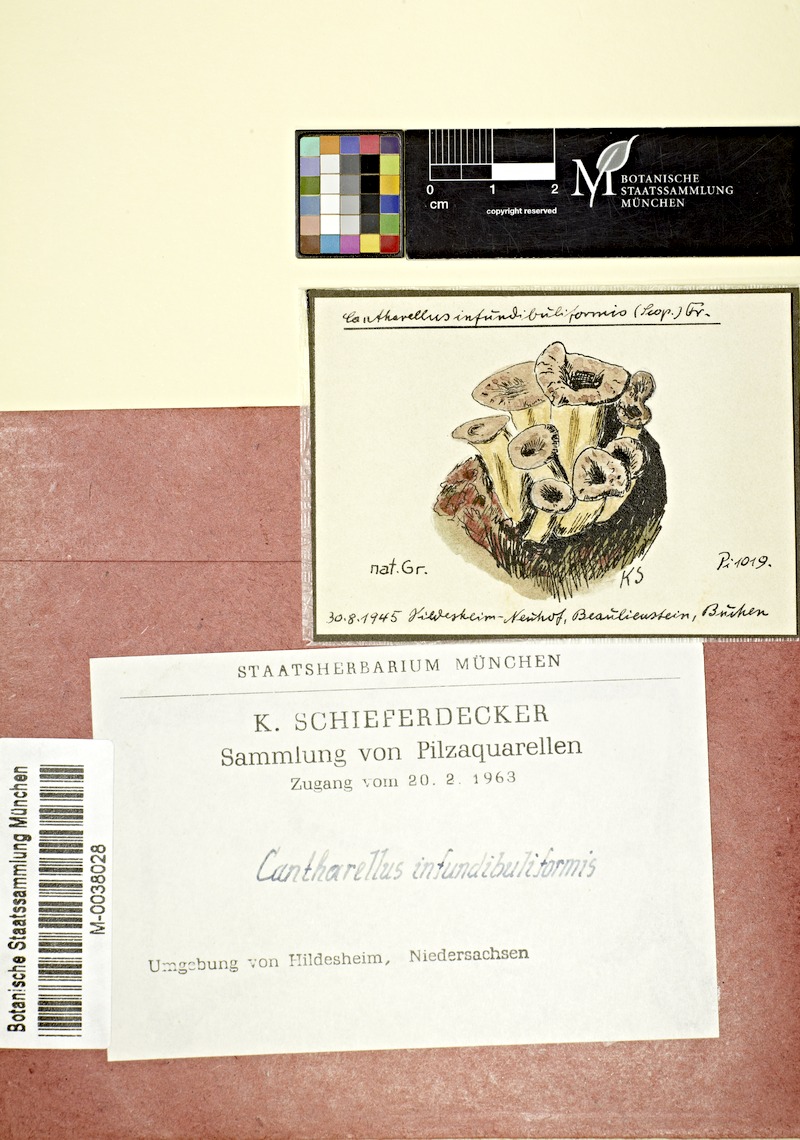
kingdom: Fungi
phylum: Basidiomycota
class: Agaricomycetes
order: Cantharellales
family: Hydnaceae
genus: Craterellus
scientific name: Craterellus tubaeformis
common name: Yellowfoot
